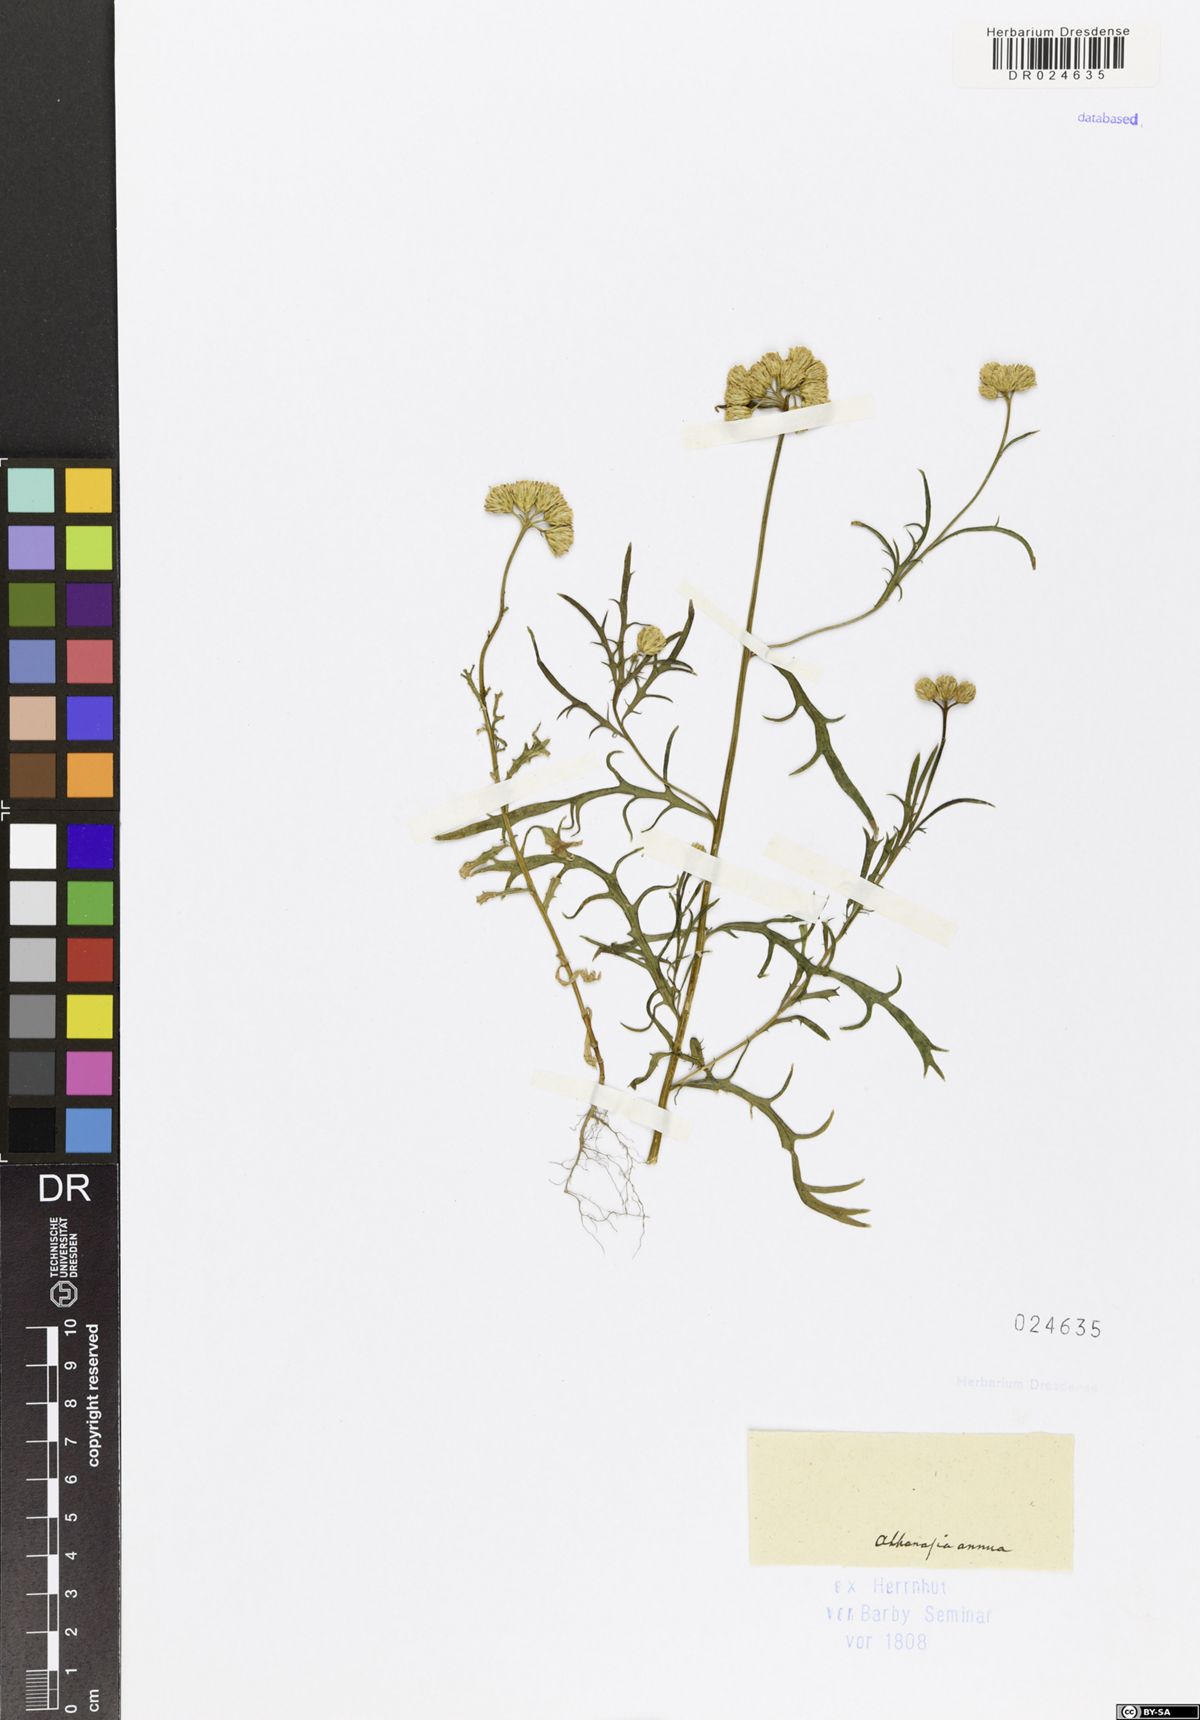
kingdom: Plantae
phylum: Tracheophyta
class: Magnoliopsida
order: Asterales
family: Asteraceae
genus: Lonas
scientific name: Lonas annua
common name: African daisy
